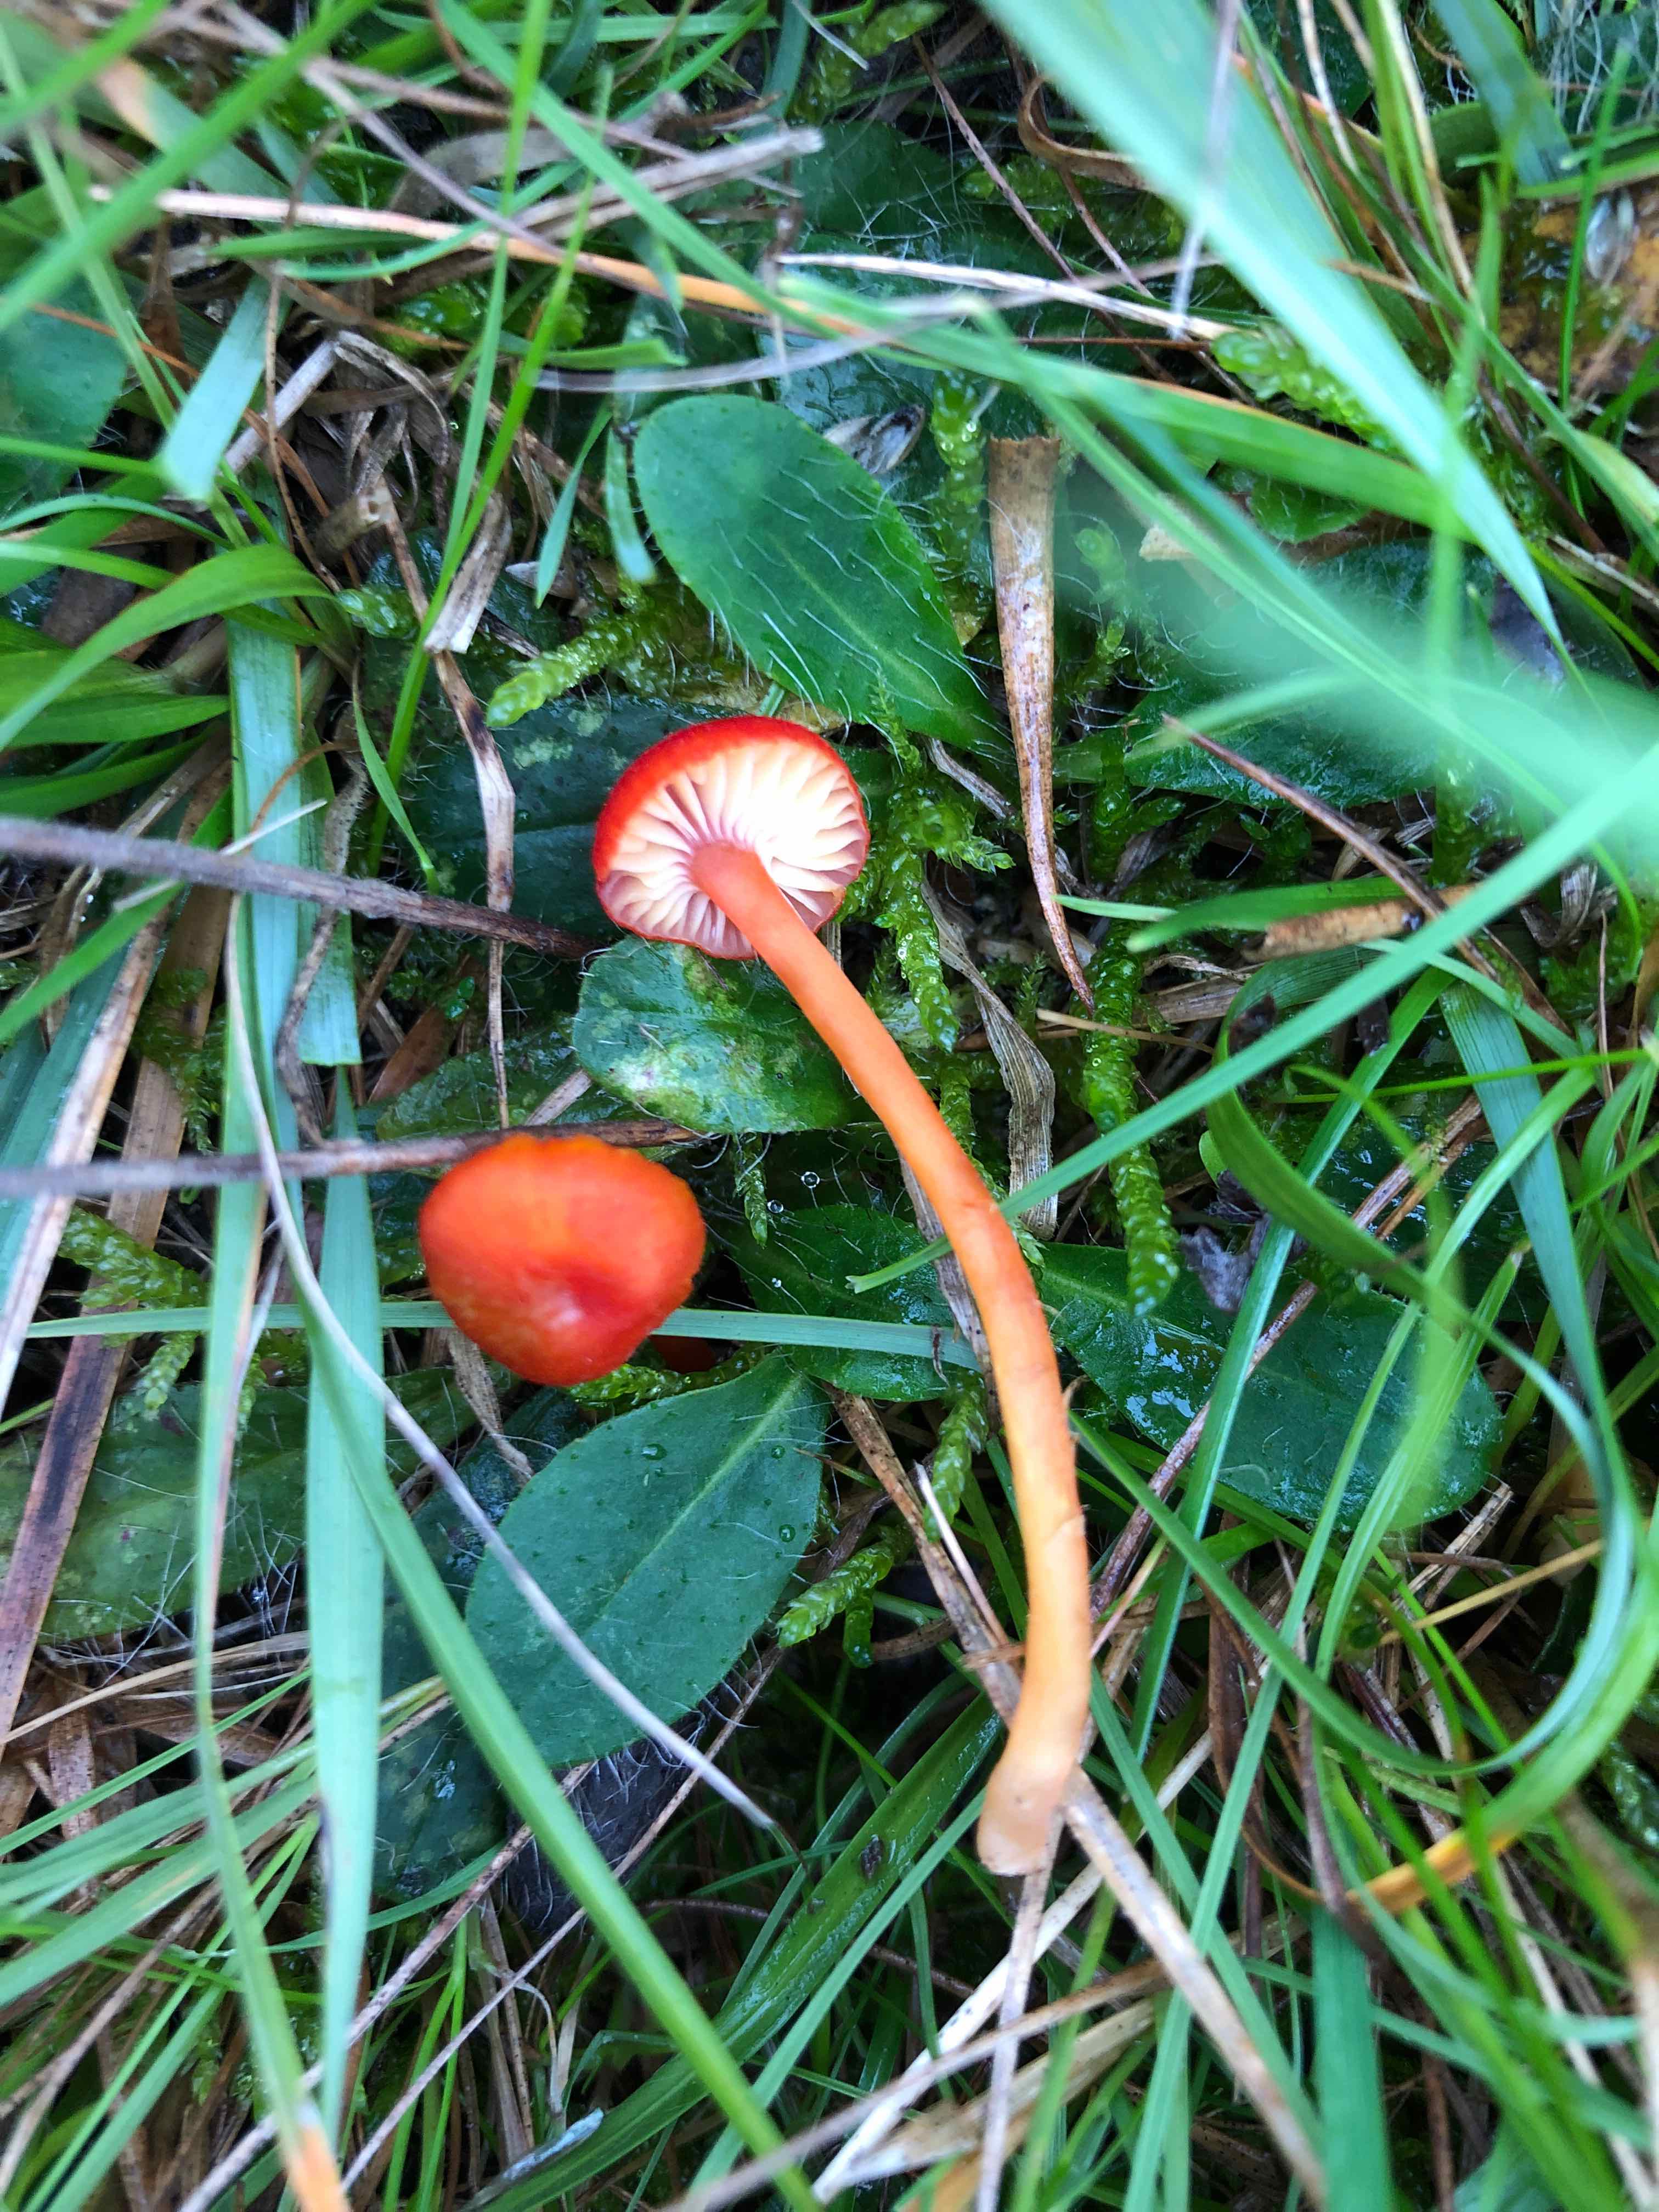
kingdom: Fungi
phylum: Basidiomycota
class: Agaricomycetes
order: Agaricales
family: Hygrophoraceae
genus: Hygrocybe
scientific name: Hygrocybe helobia
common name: hvidløgs-vokshat
